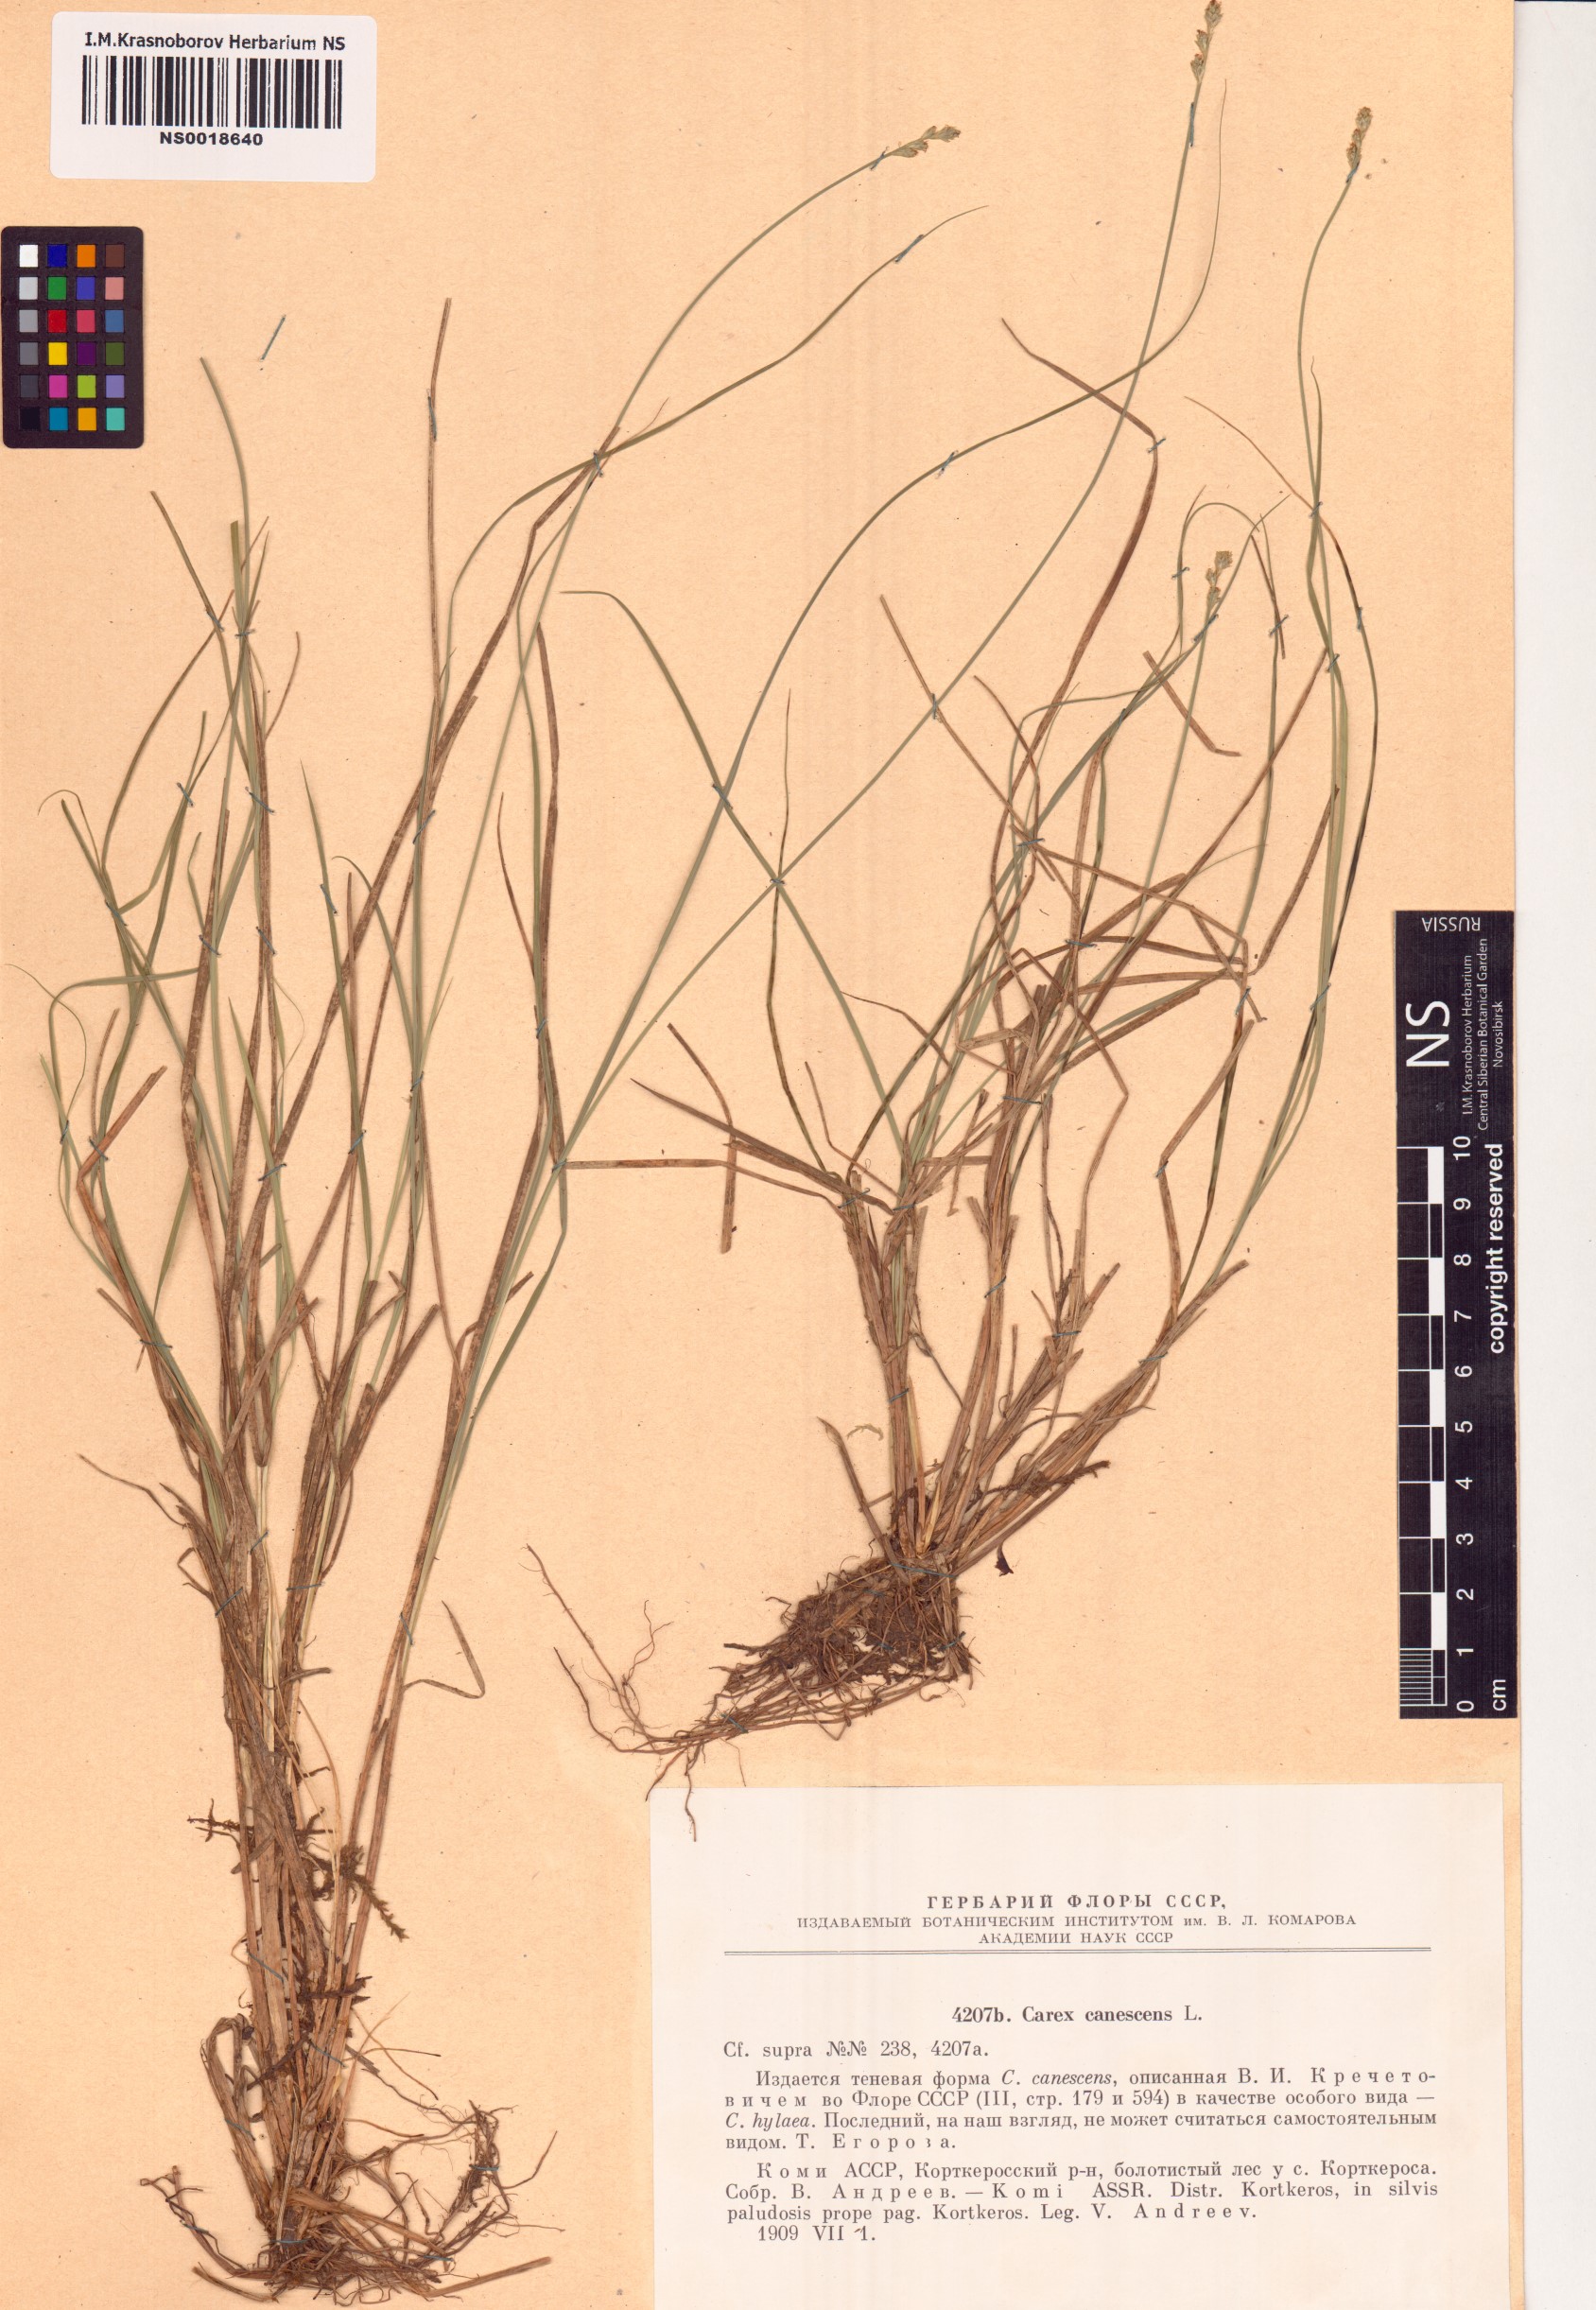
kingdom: Plantae
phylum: Tracheophyta
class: Liliopsida
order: Poales
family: Cyperaceae
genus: Carex
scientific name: Carex canescens
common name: White sedge
